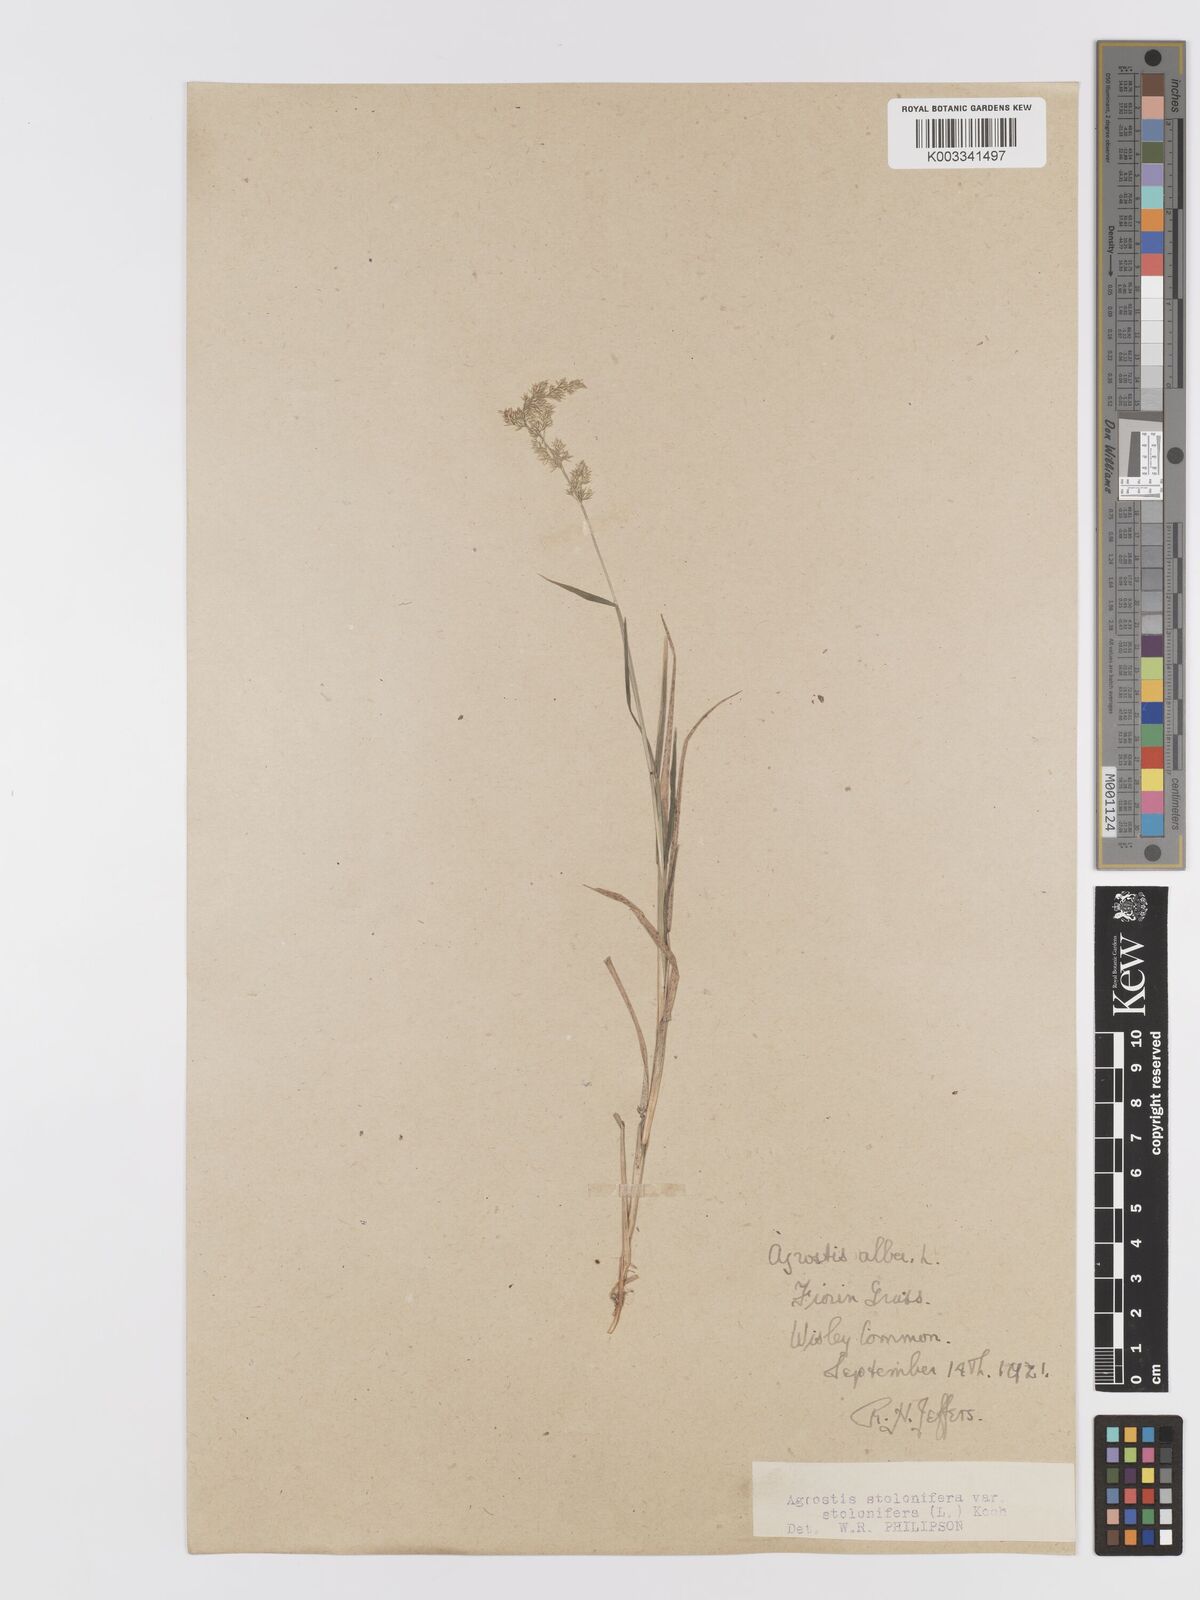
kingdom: Plantae
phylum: Tracheophyta
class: Liliopsida
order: Poales
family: Poaceae
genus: Agrostis
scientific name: Agrostis stolonifera
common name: Creeping bentgrass
